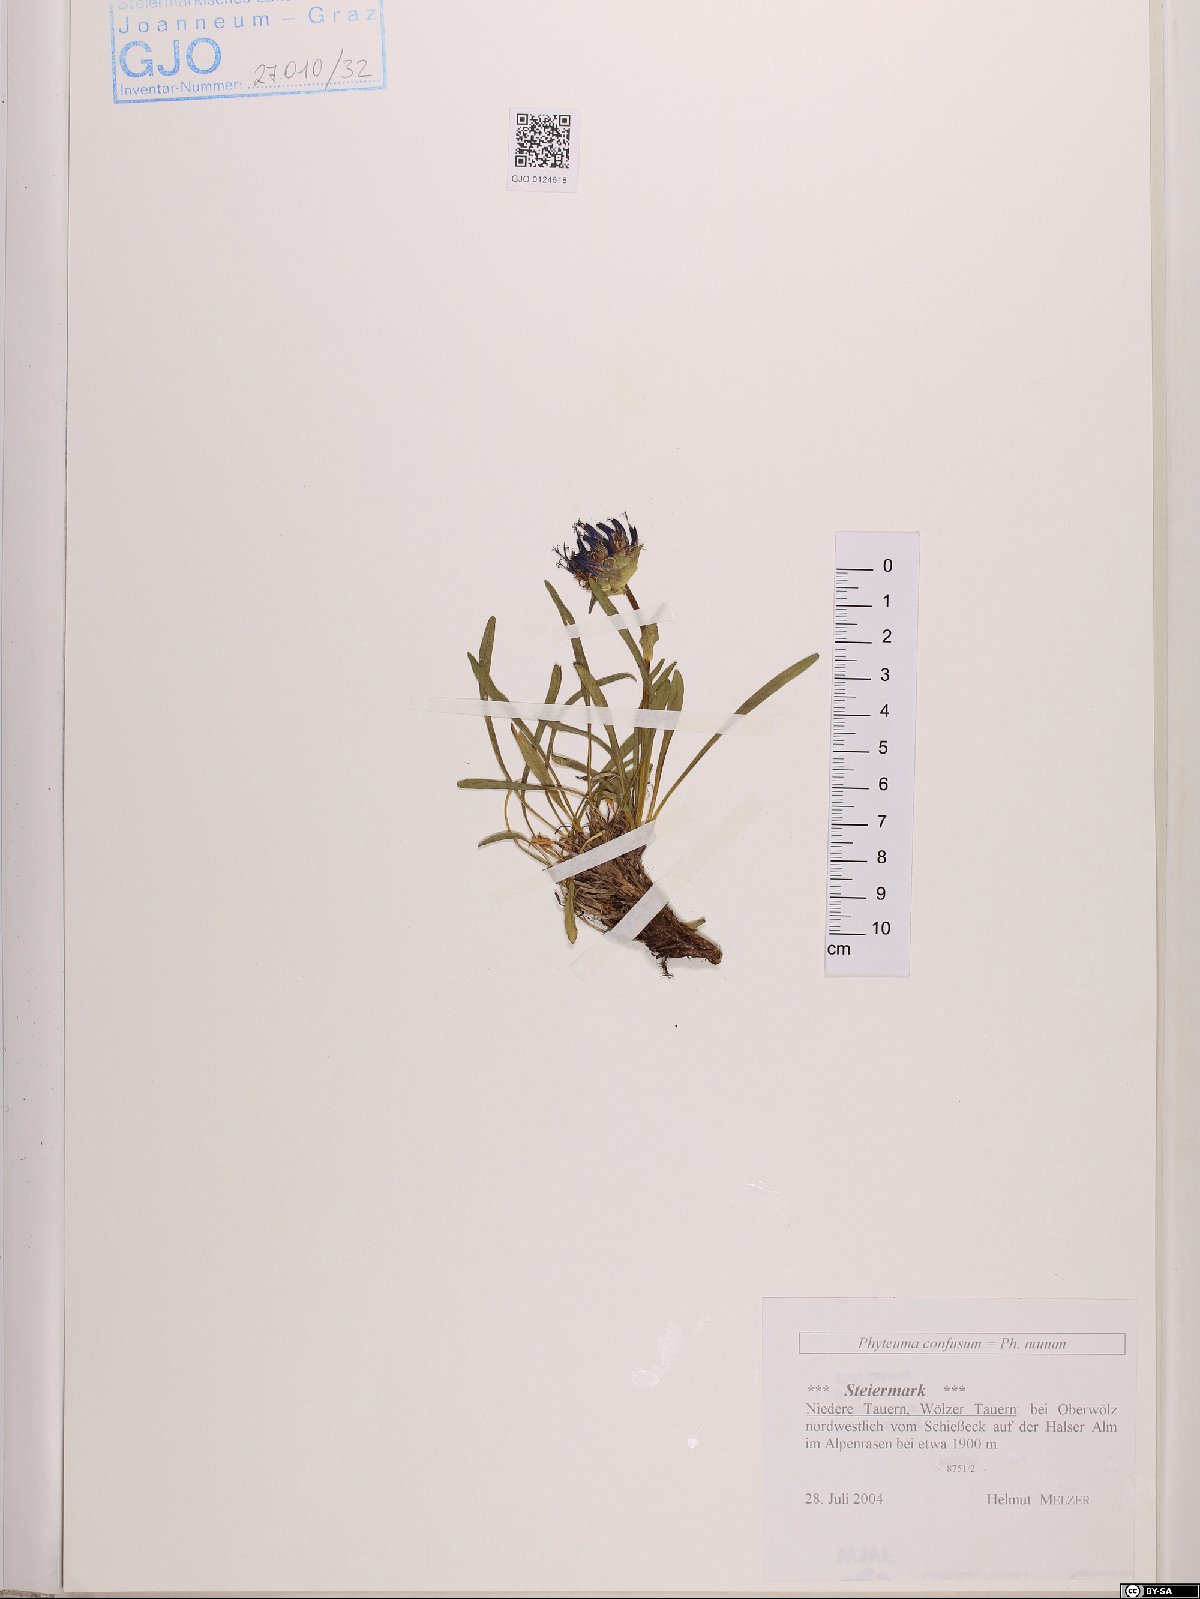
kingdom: Plantae
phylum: Tracheophyta
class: Magnoliopsida
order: Asterales
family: Campanulaceae
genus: Phyteuma
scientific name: Phyteuma confusum
